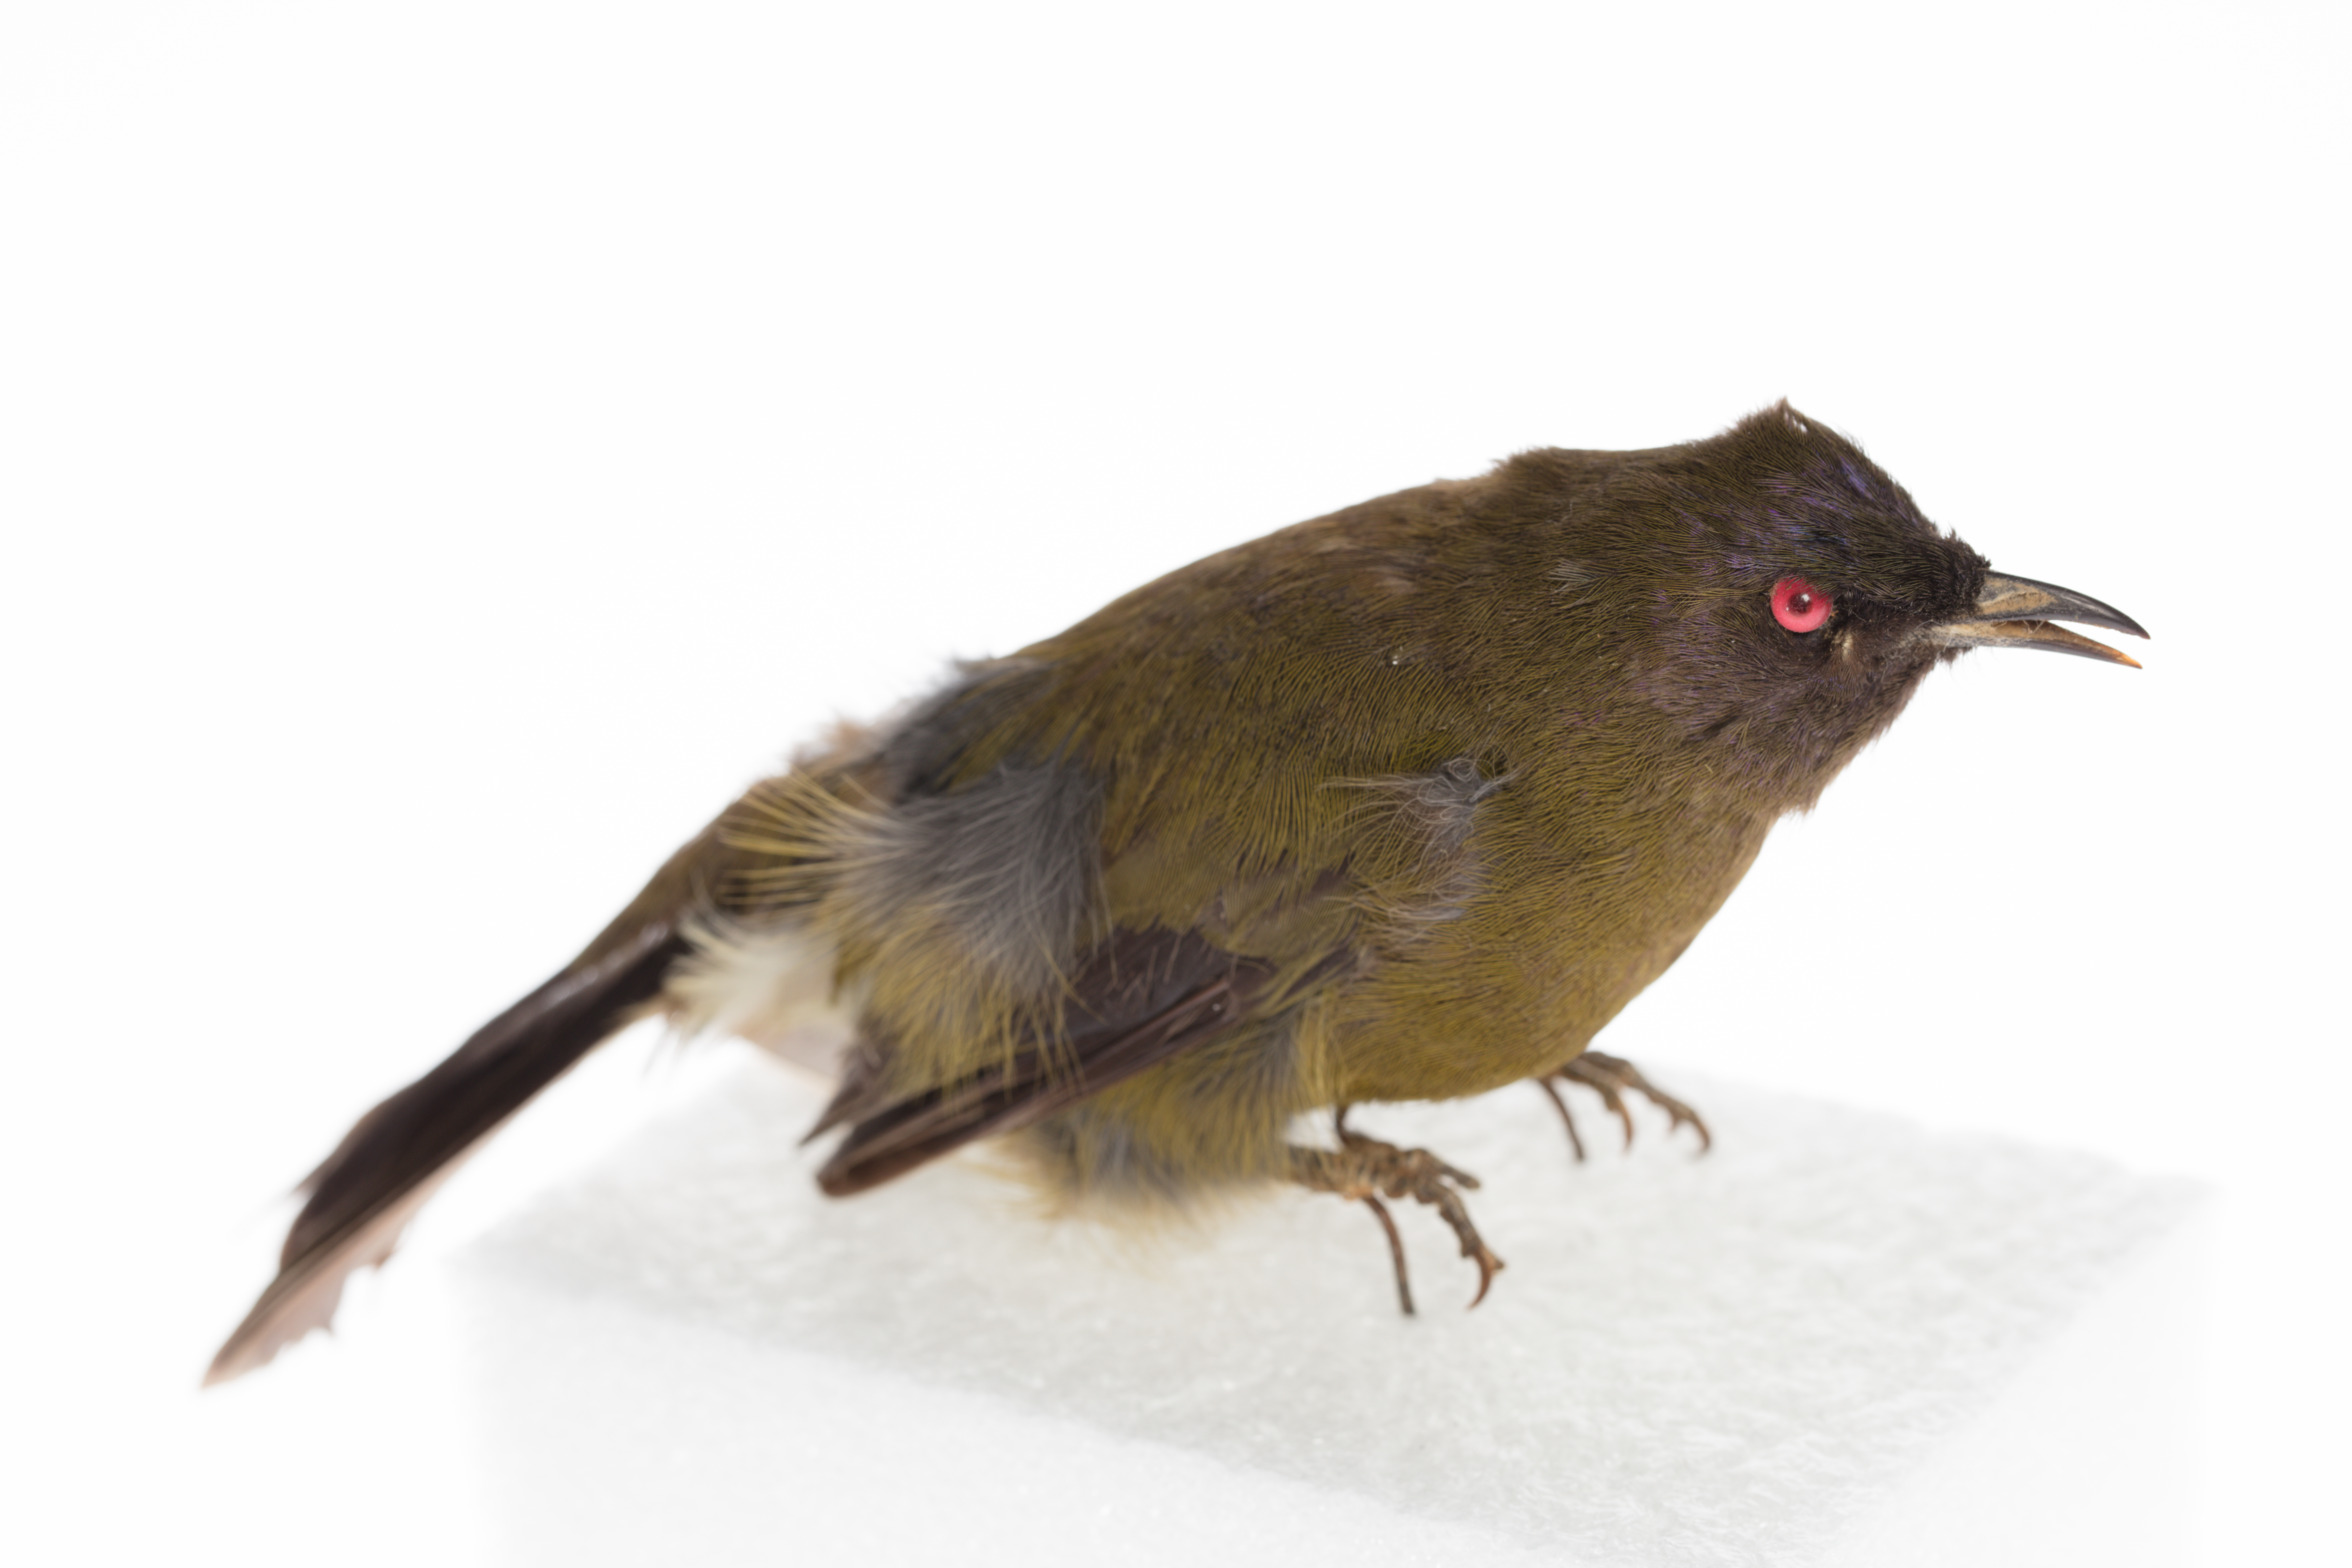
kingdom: Animalia
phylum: Chordata
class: Aves
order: Passeriformes
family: Meliphagidae
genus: Anthornis
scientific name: Anthornis melanura
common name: New zealand bellbird
